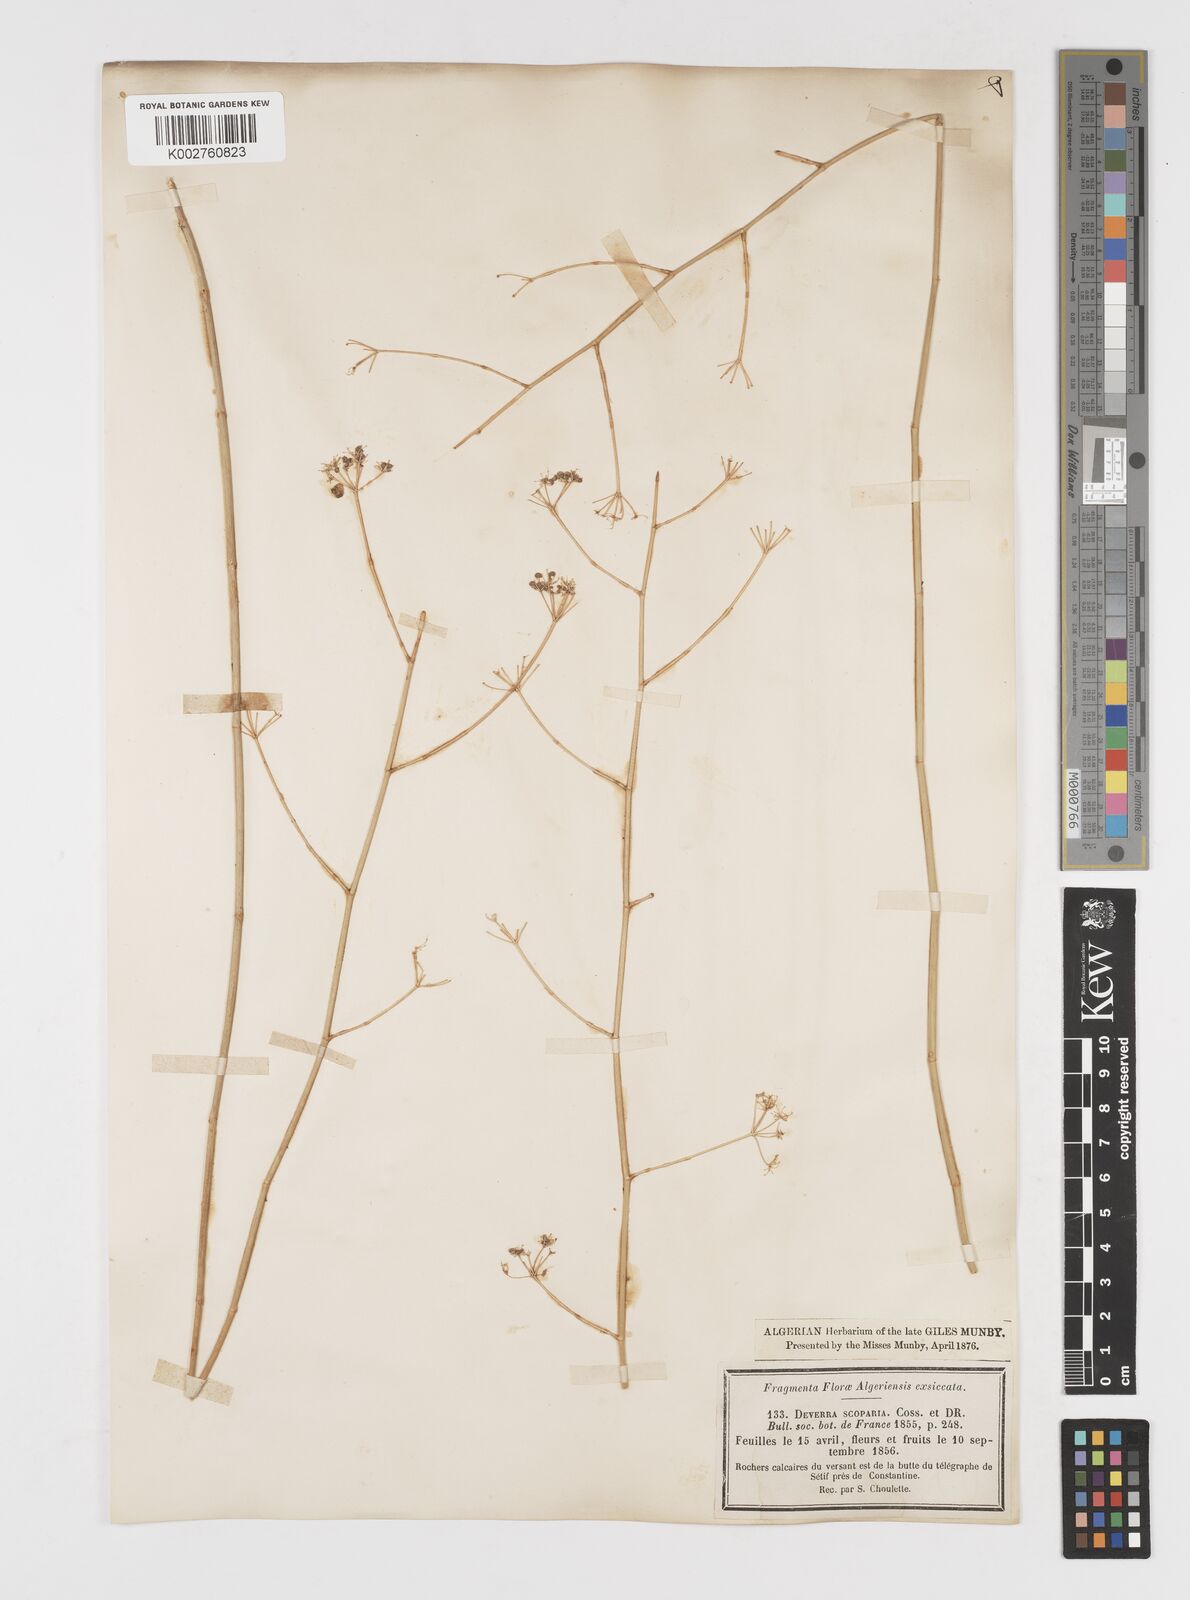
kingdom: Plantae
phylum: Tracheophyta
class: Magnoliopsida
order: Apiales
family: Apiaceae
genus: Deverra
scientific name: Deverra scoparia
